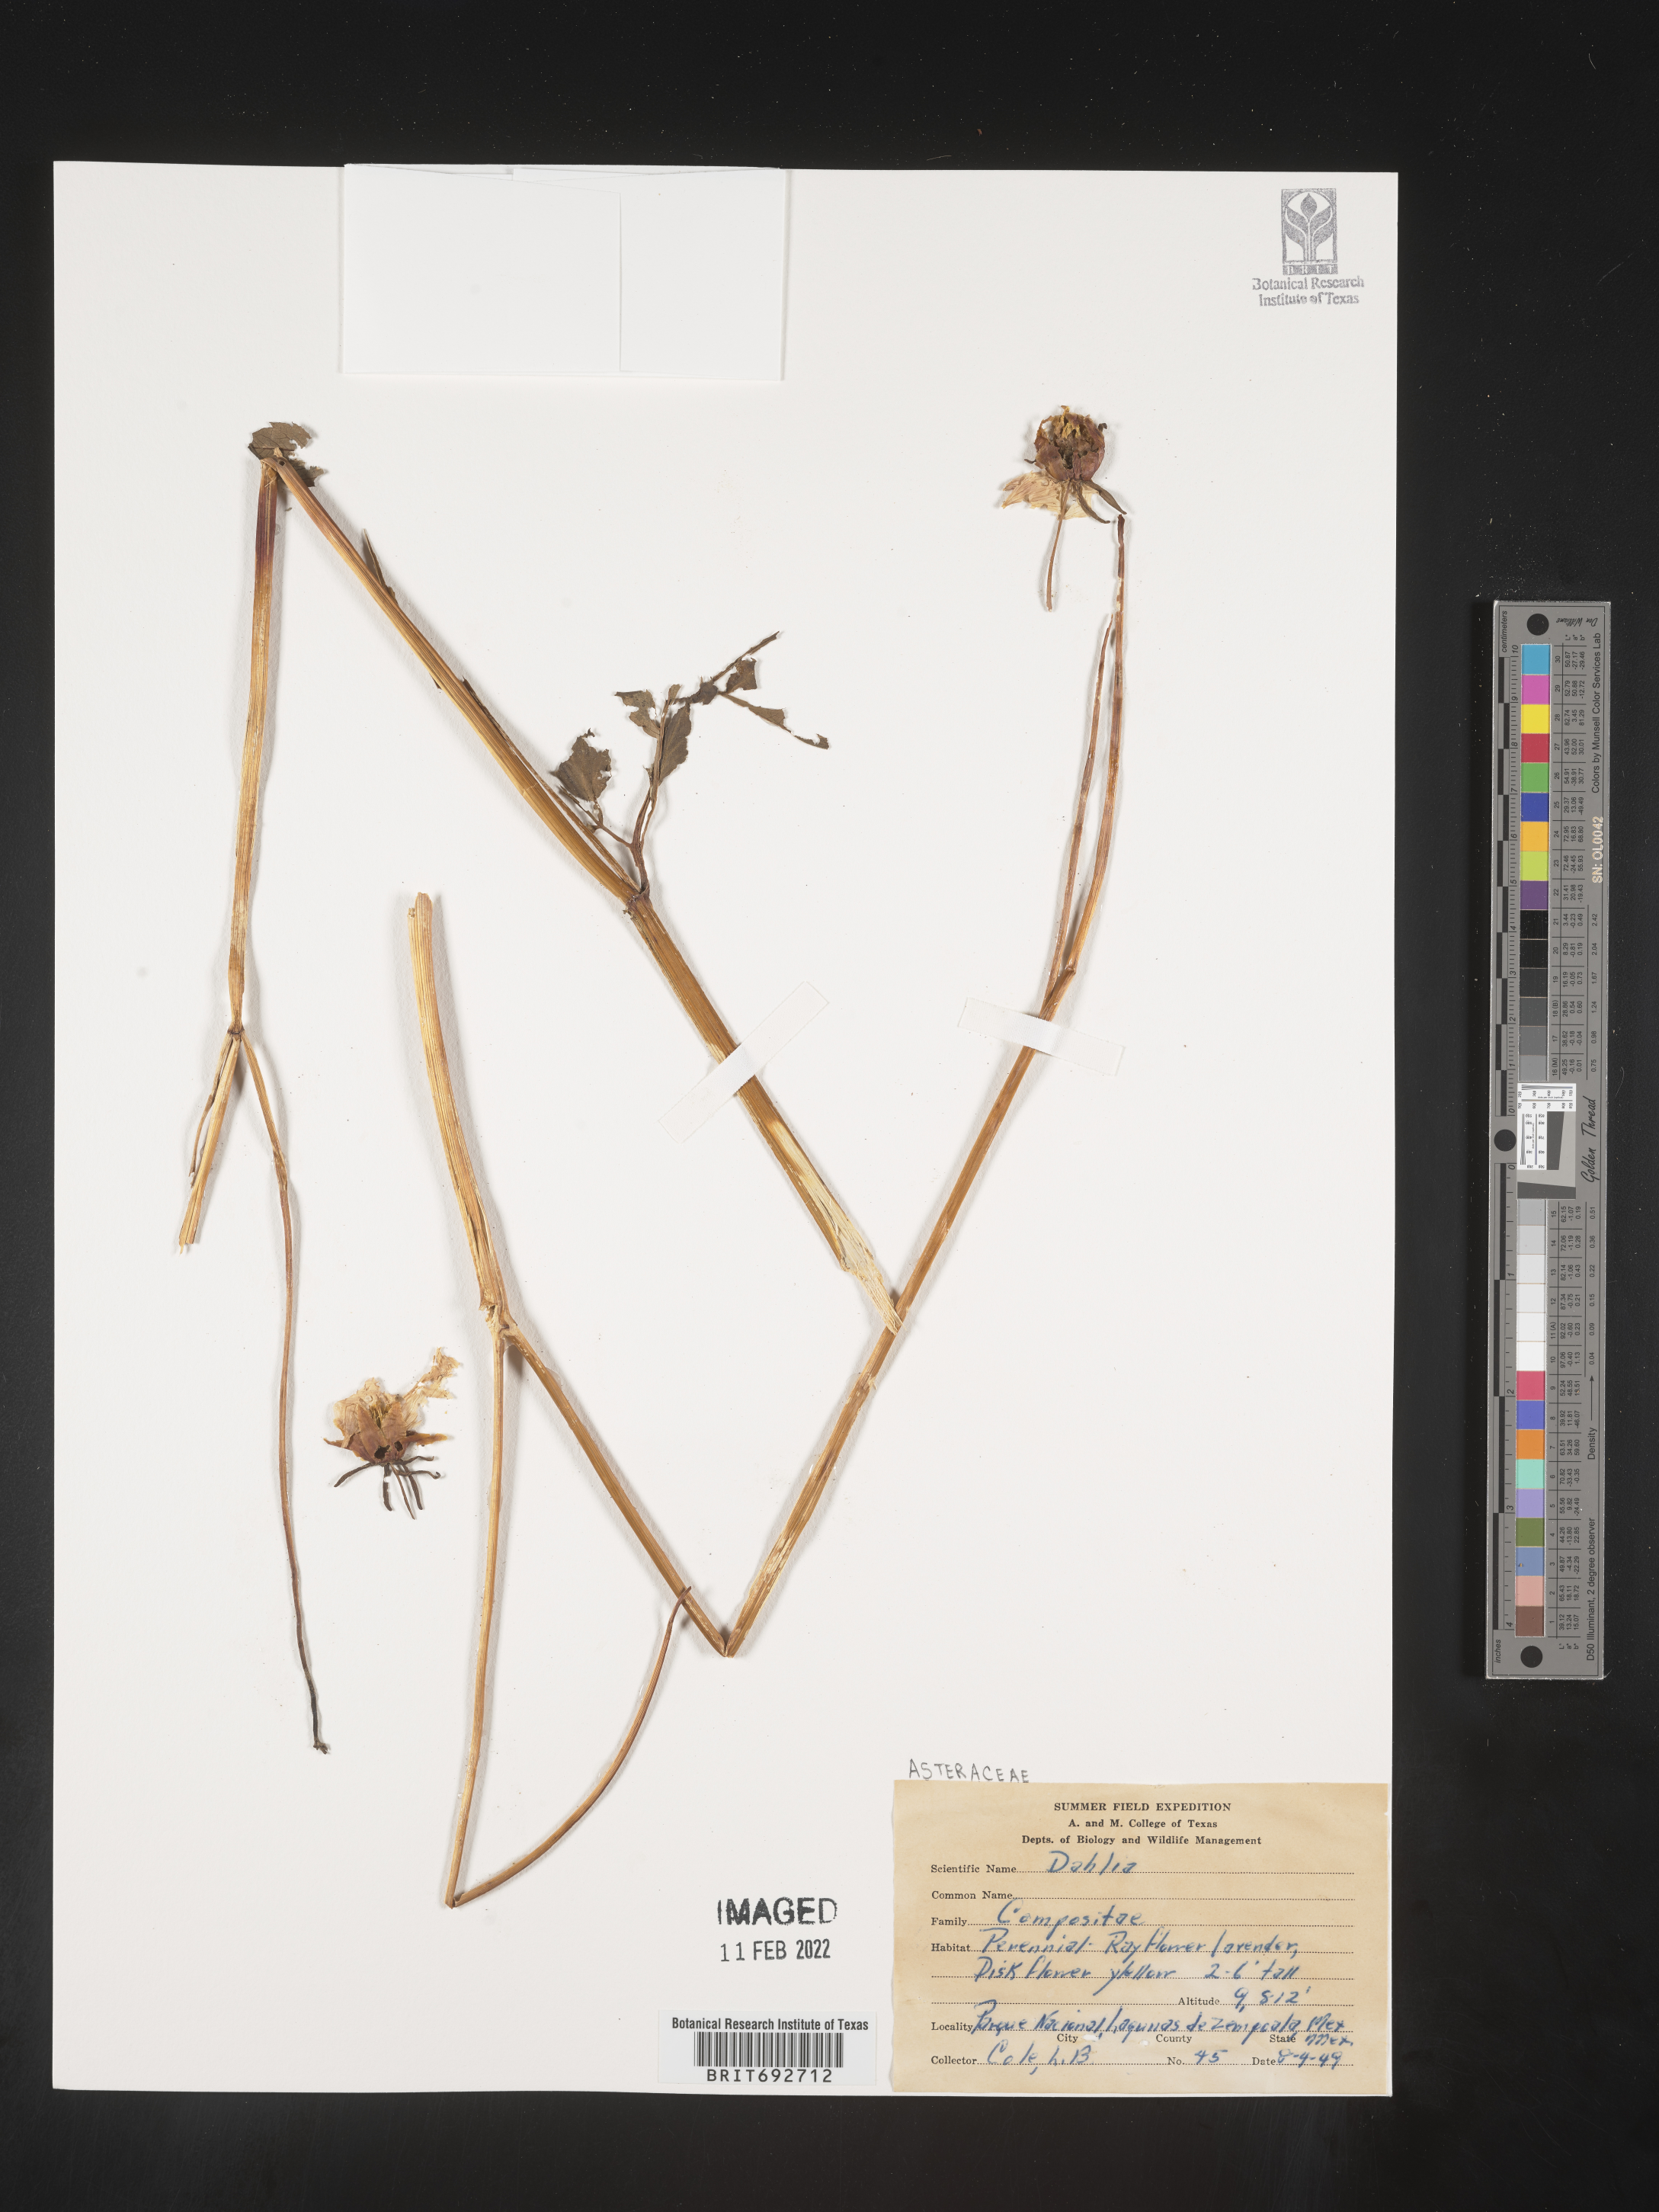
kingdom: Plantae
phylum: Tracheophyta
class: Magnoliopsida
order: Asterales
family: Asteraceae
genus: Dahlia
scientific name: Dahlia
